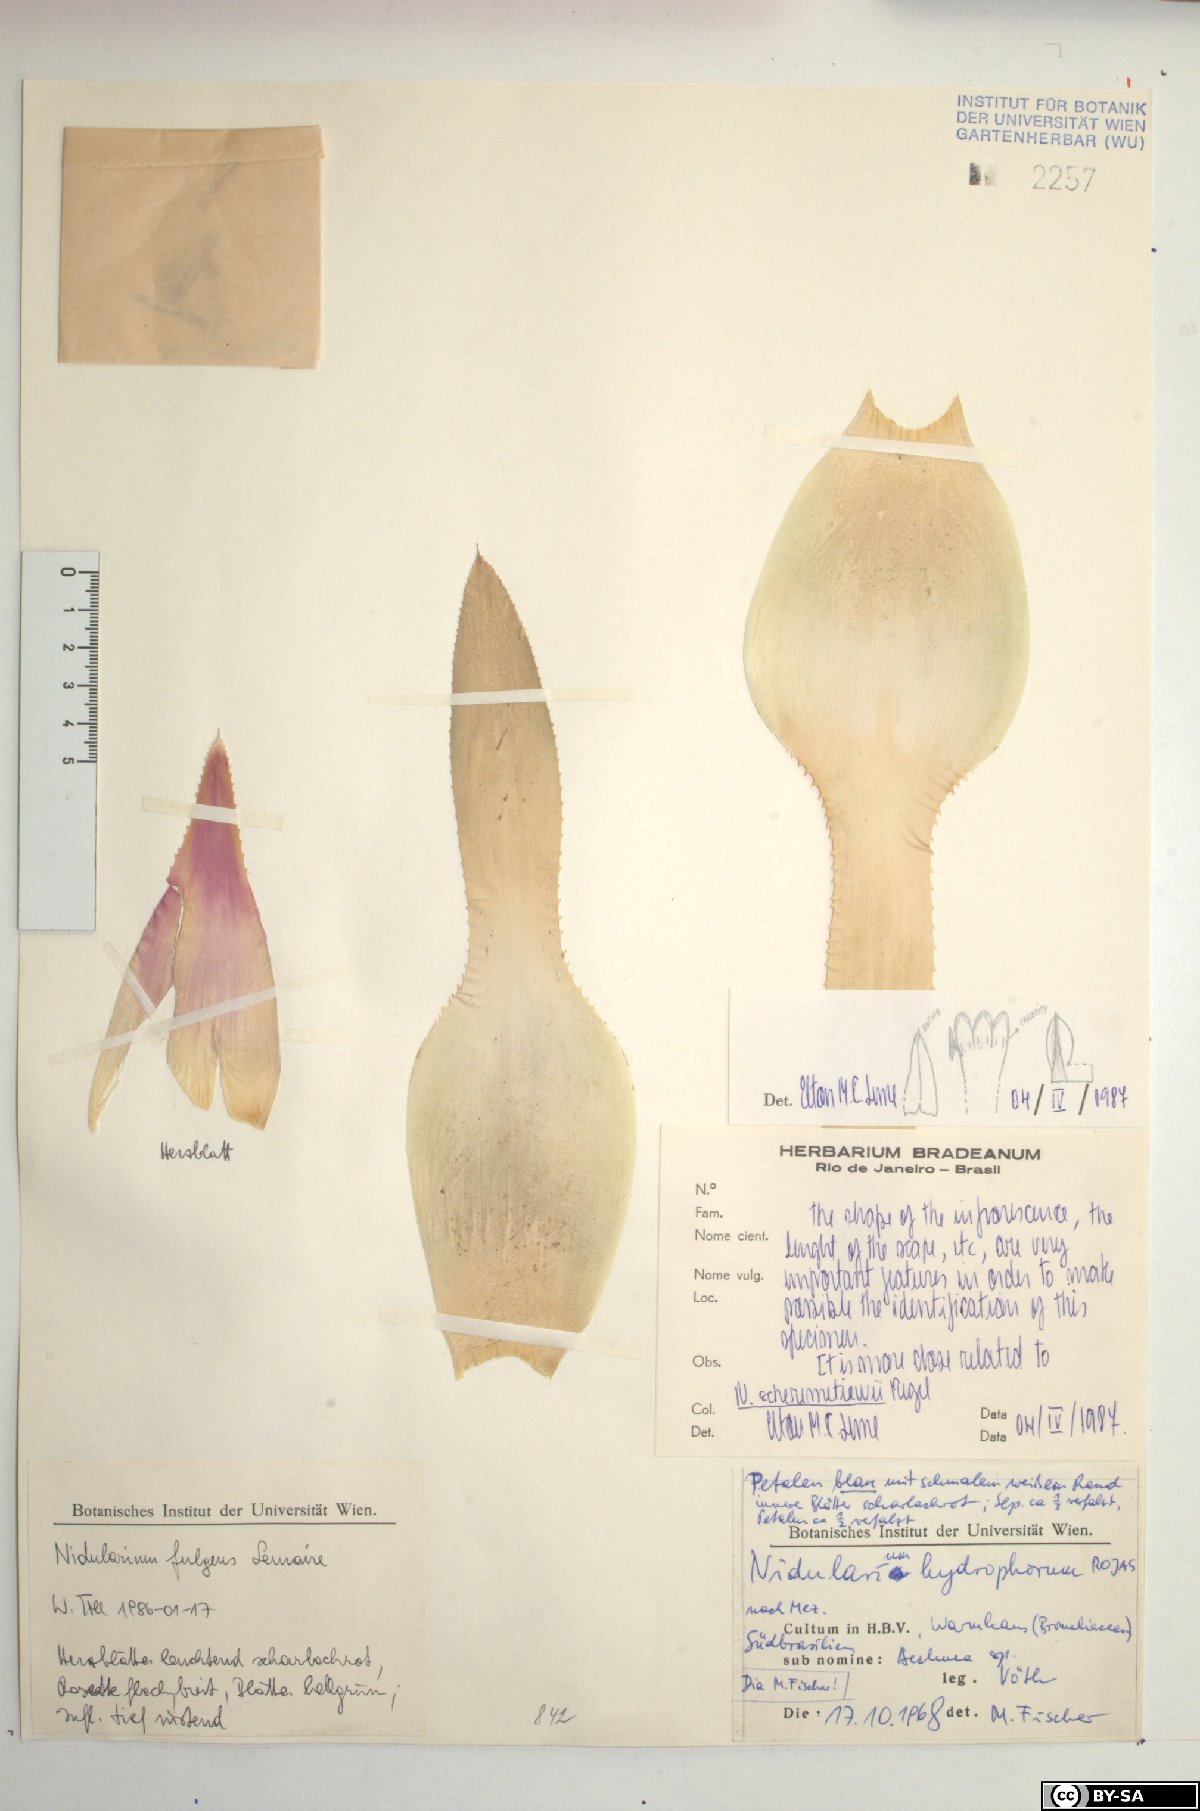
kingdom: Plantae
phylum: Tracheophyta
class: Liliopsida
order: Poales
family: Bromeliaceae
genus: Nidularium
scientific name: Nidularium fulgens
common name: Blushing bromeliad
